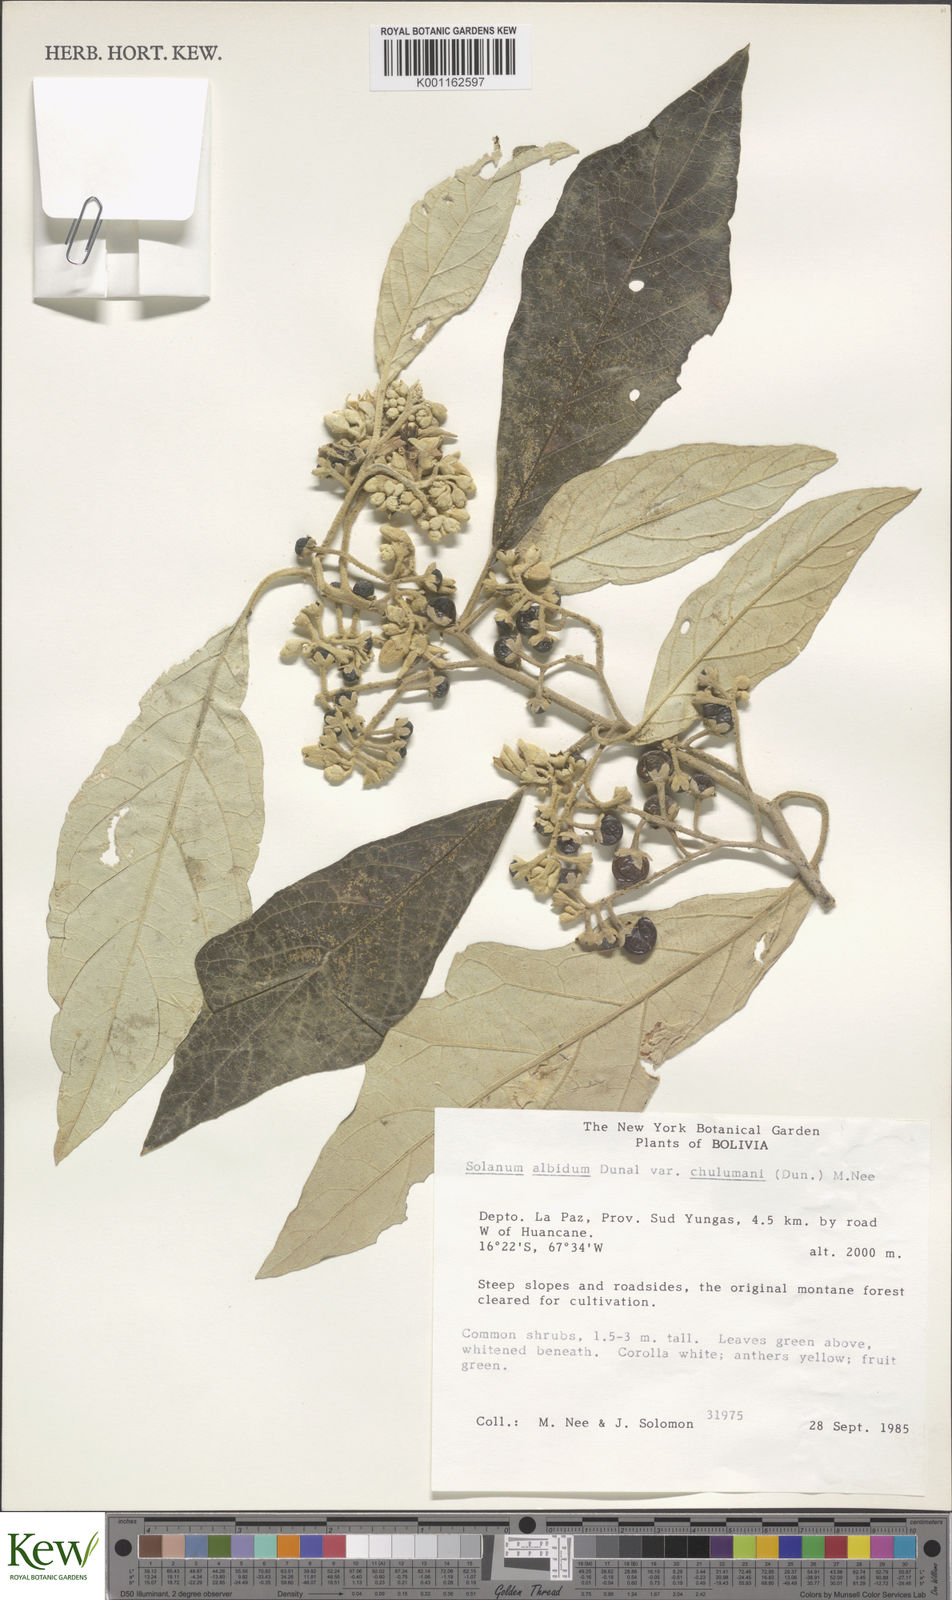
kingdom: Plantae
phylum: Tracheophyta
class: Magnoliopsida
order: Solanales
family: Solanaceae
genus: Solanum
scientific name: Solanum albidum
